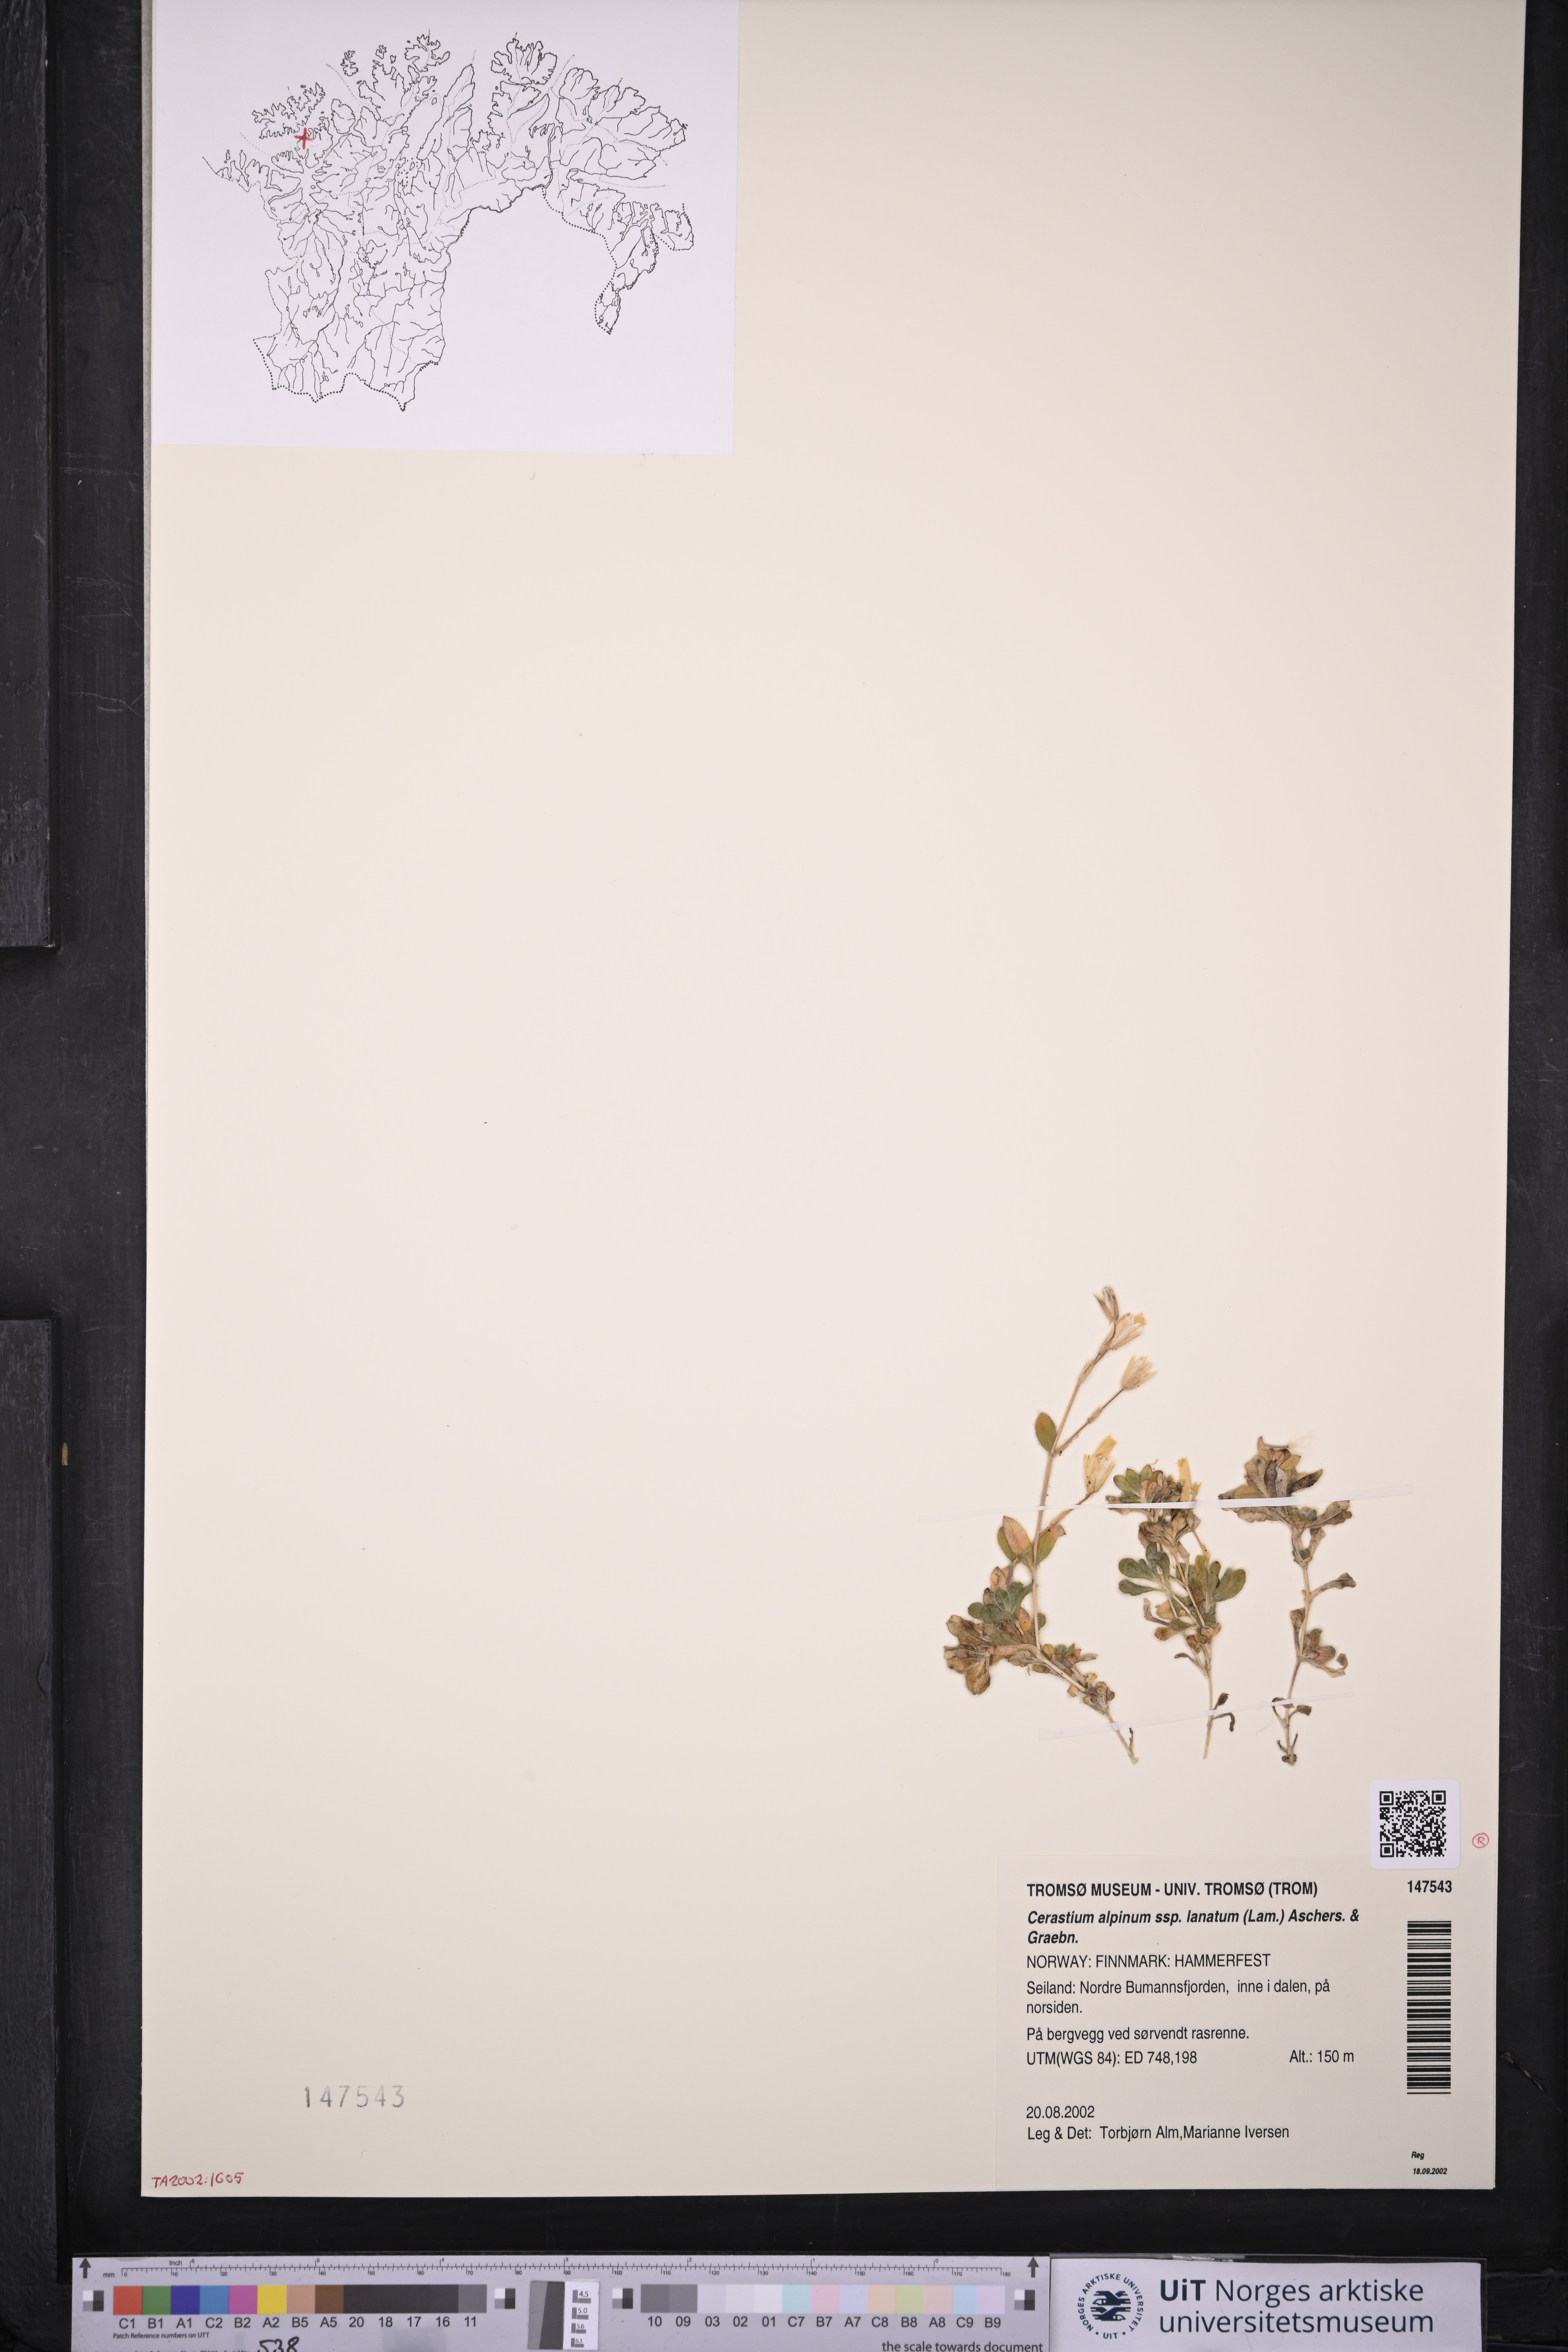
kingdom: Plantae
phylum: Tracheophyta
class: Magnoliopsida
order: Caryophyllales
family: Caryophyllaceae
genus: Cerastium
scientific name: Cerastium alpinum
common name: Alpine mouse-ear
